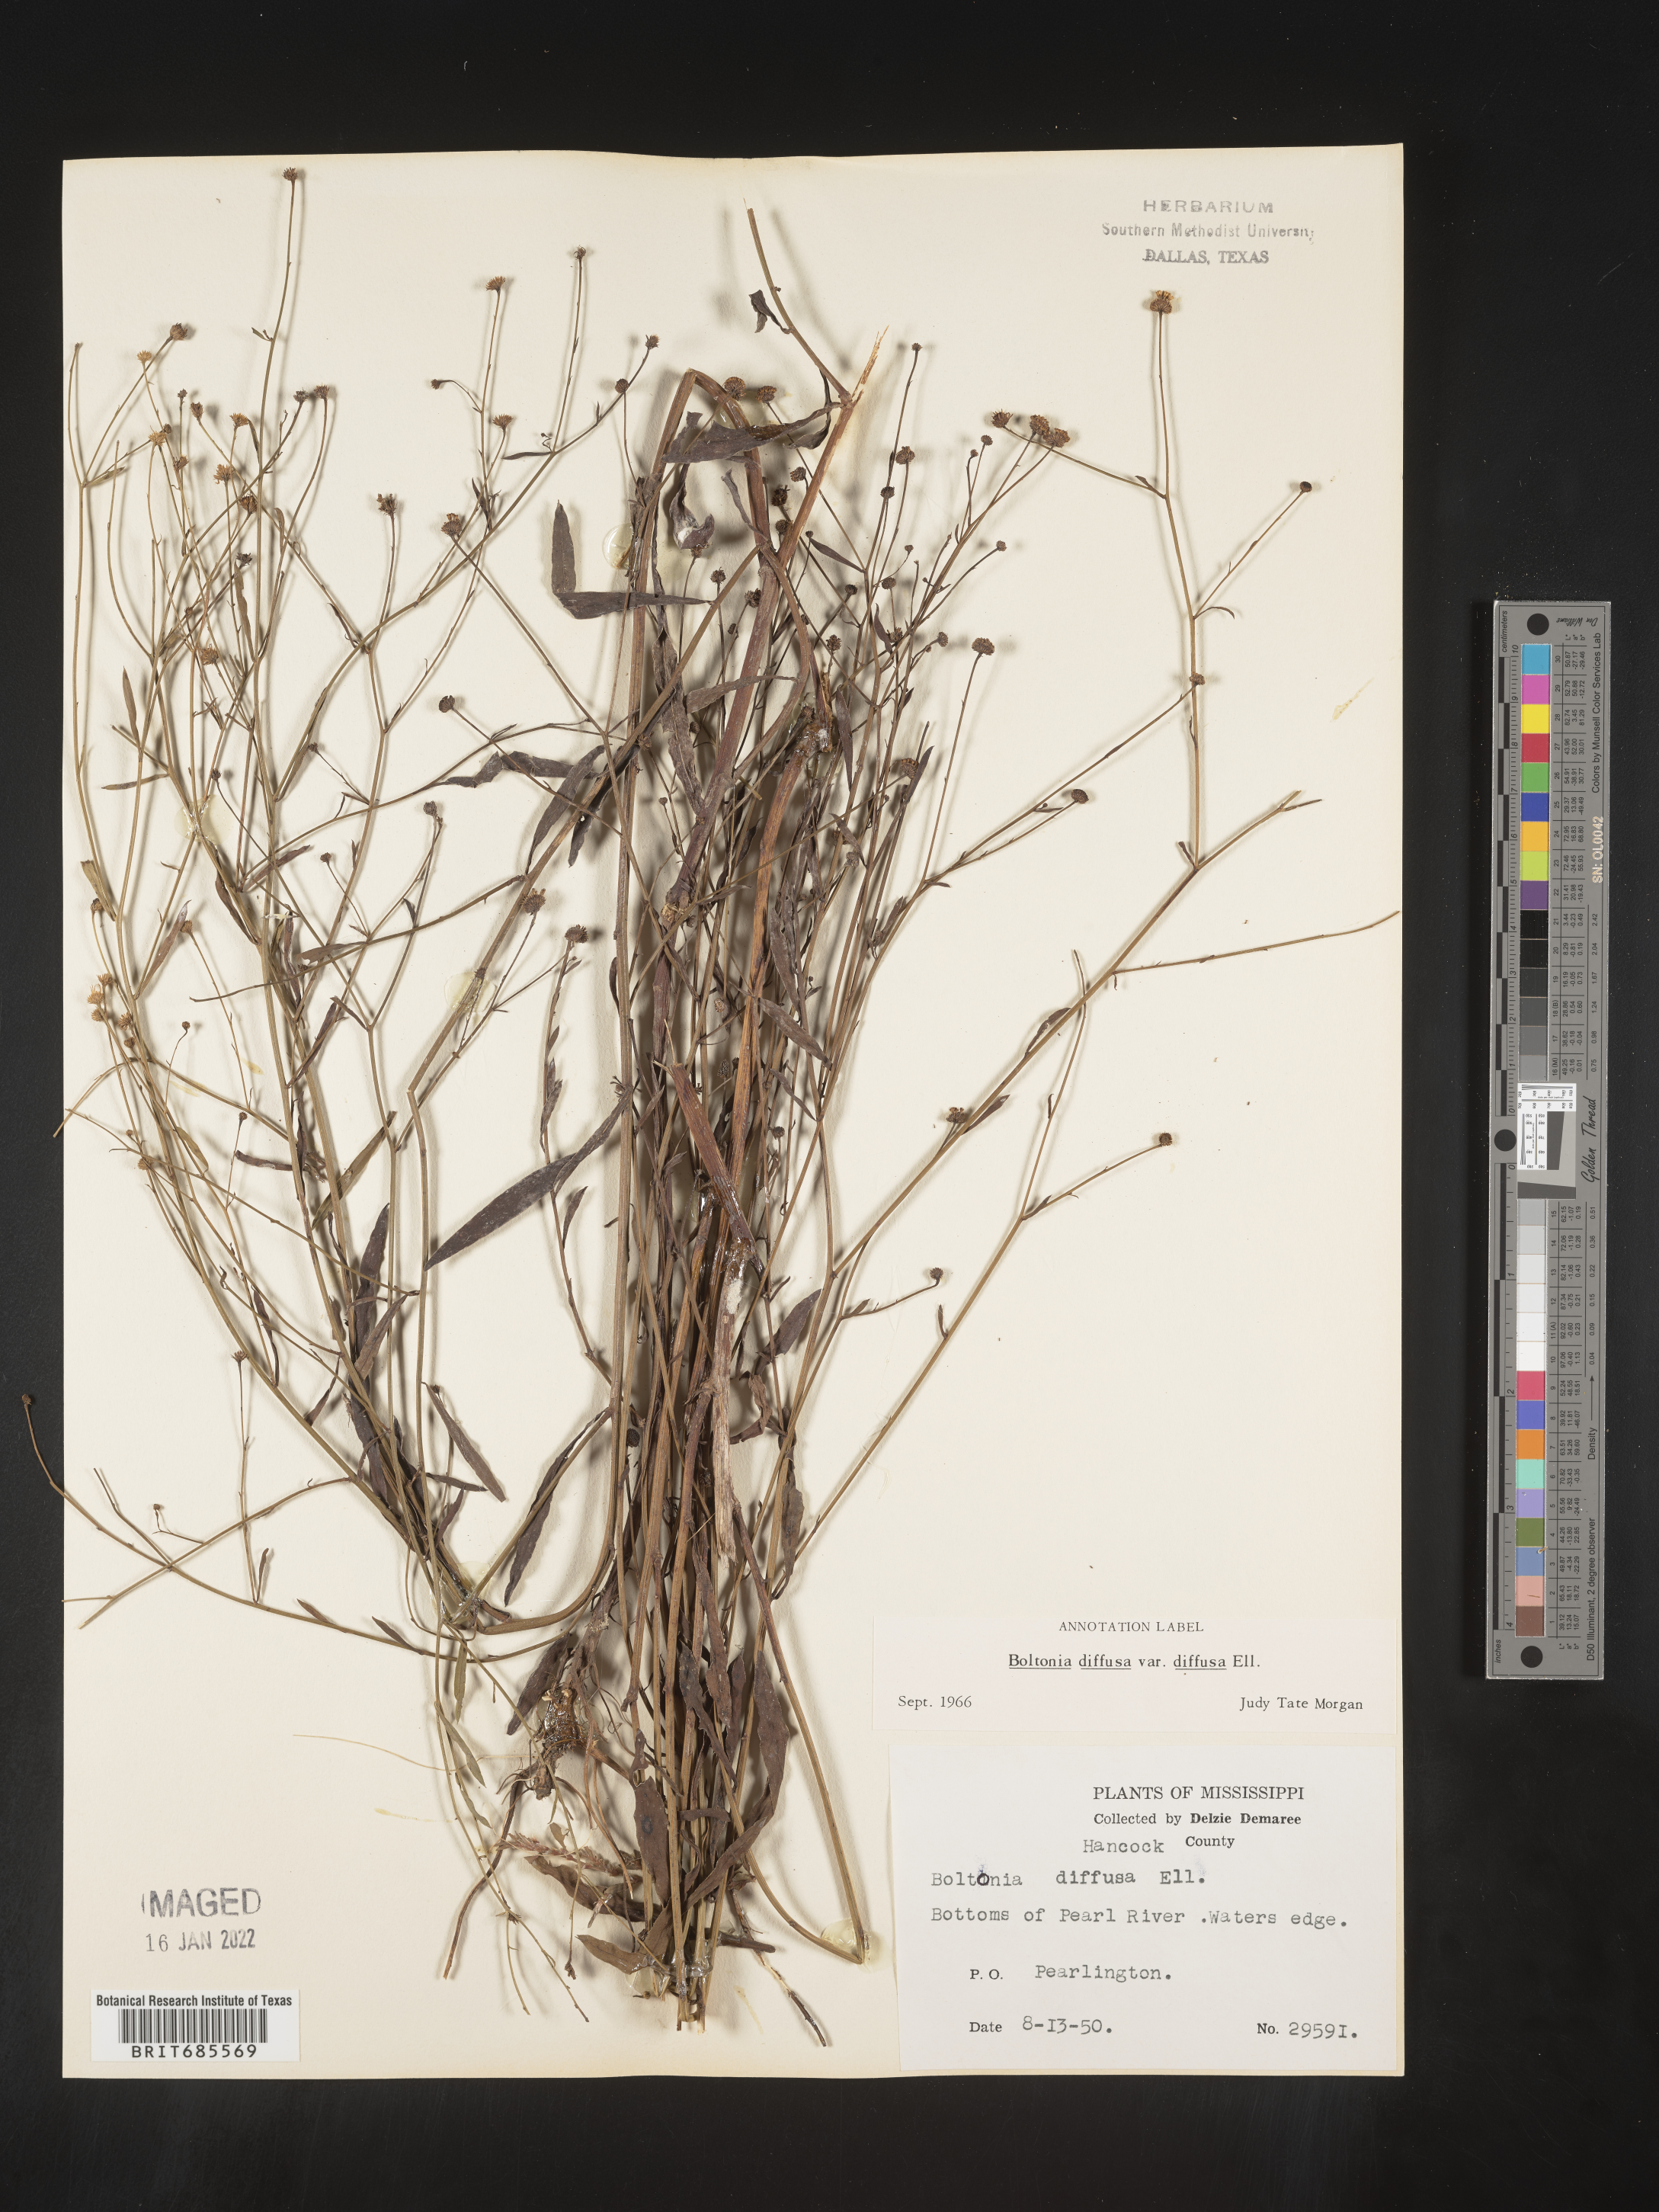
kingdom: Plantae
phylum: Tracheophyta
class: Magnoliopsida
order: Asterales
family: Asteraceae
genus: Boltonia
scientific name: Boltonia diffusa
